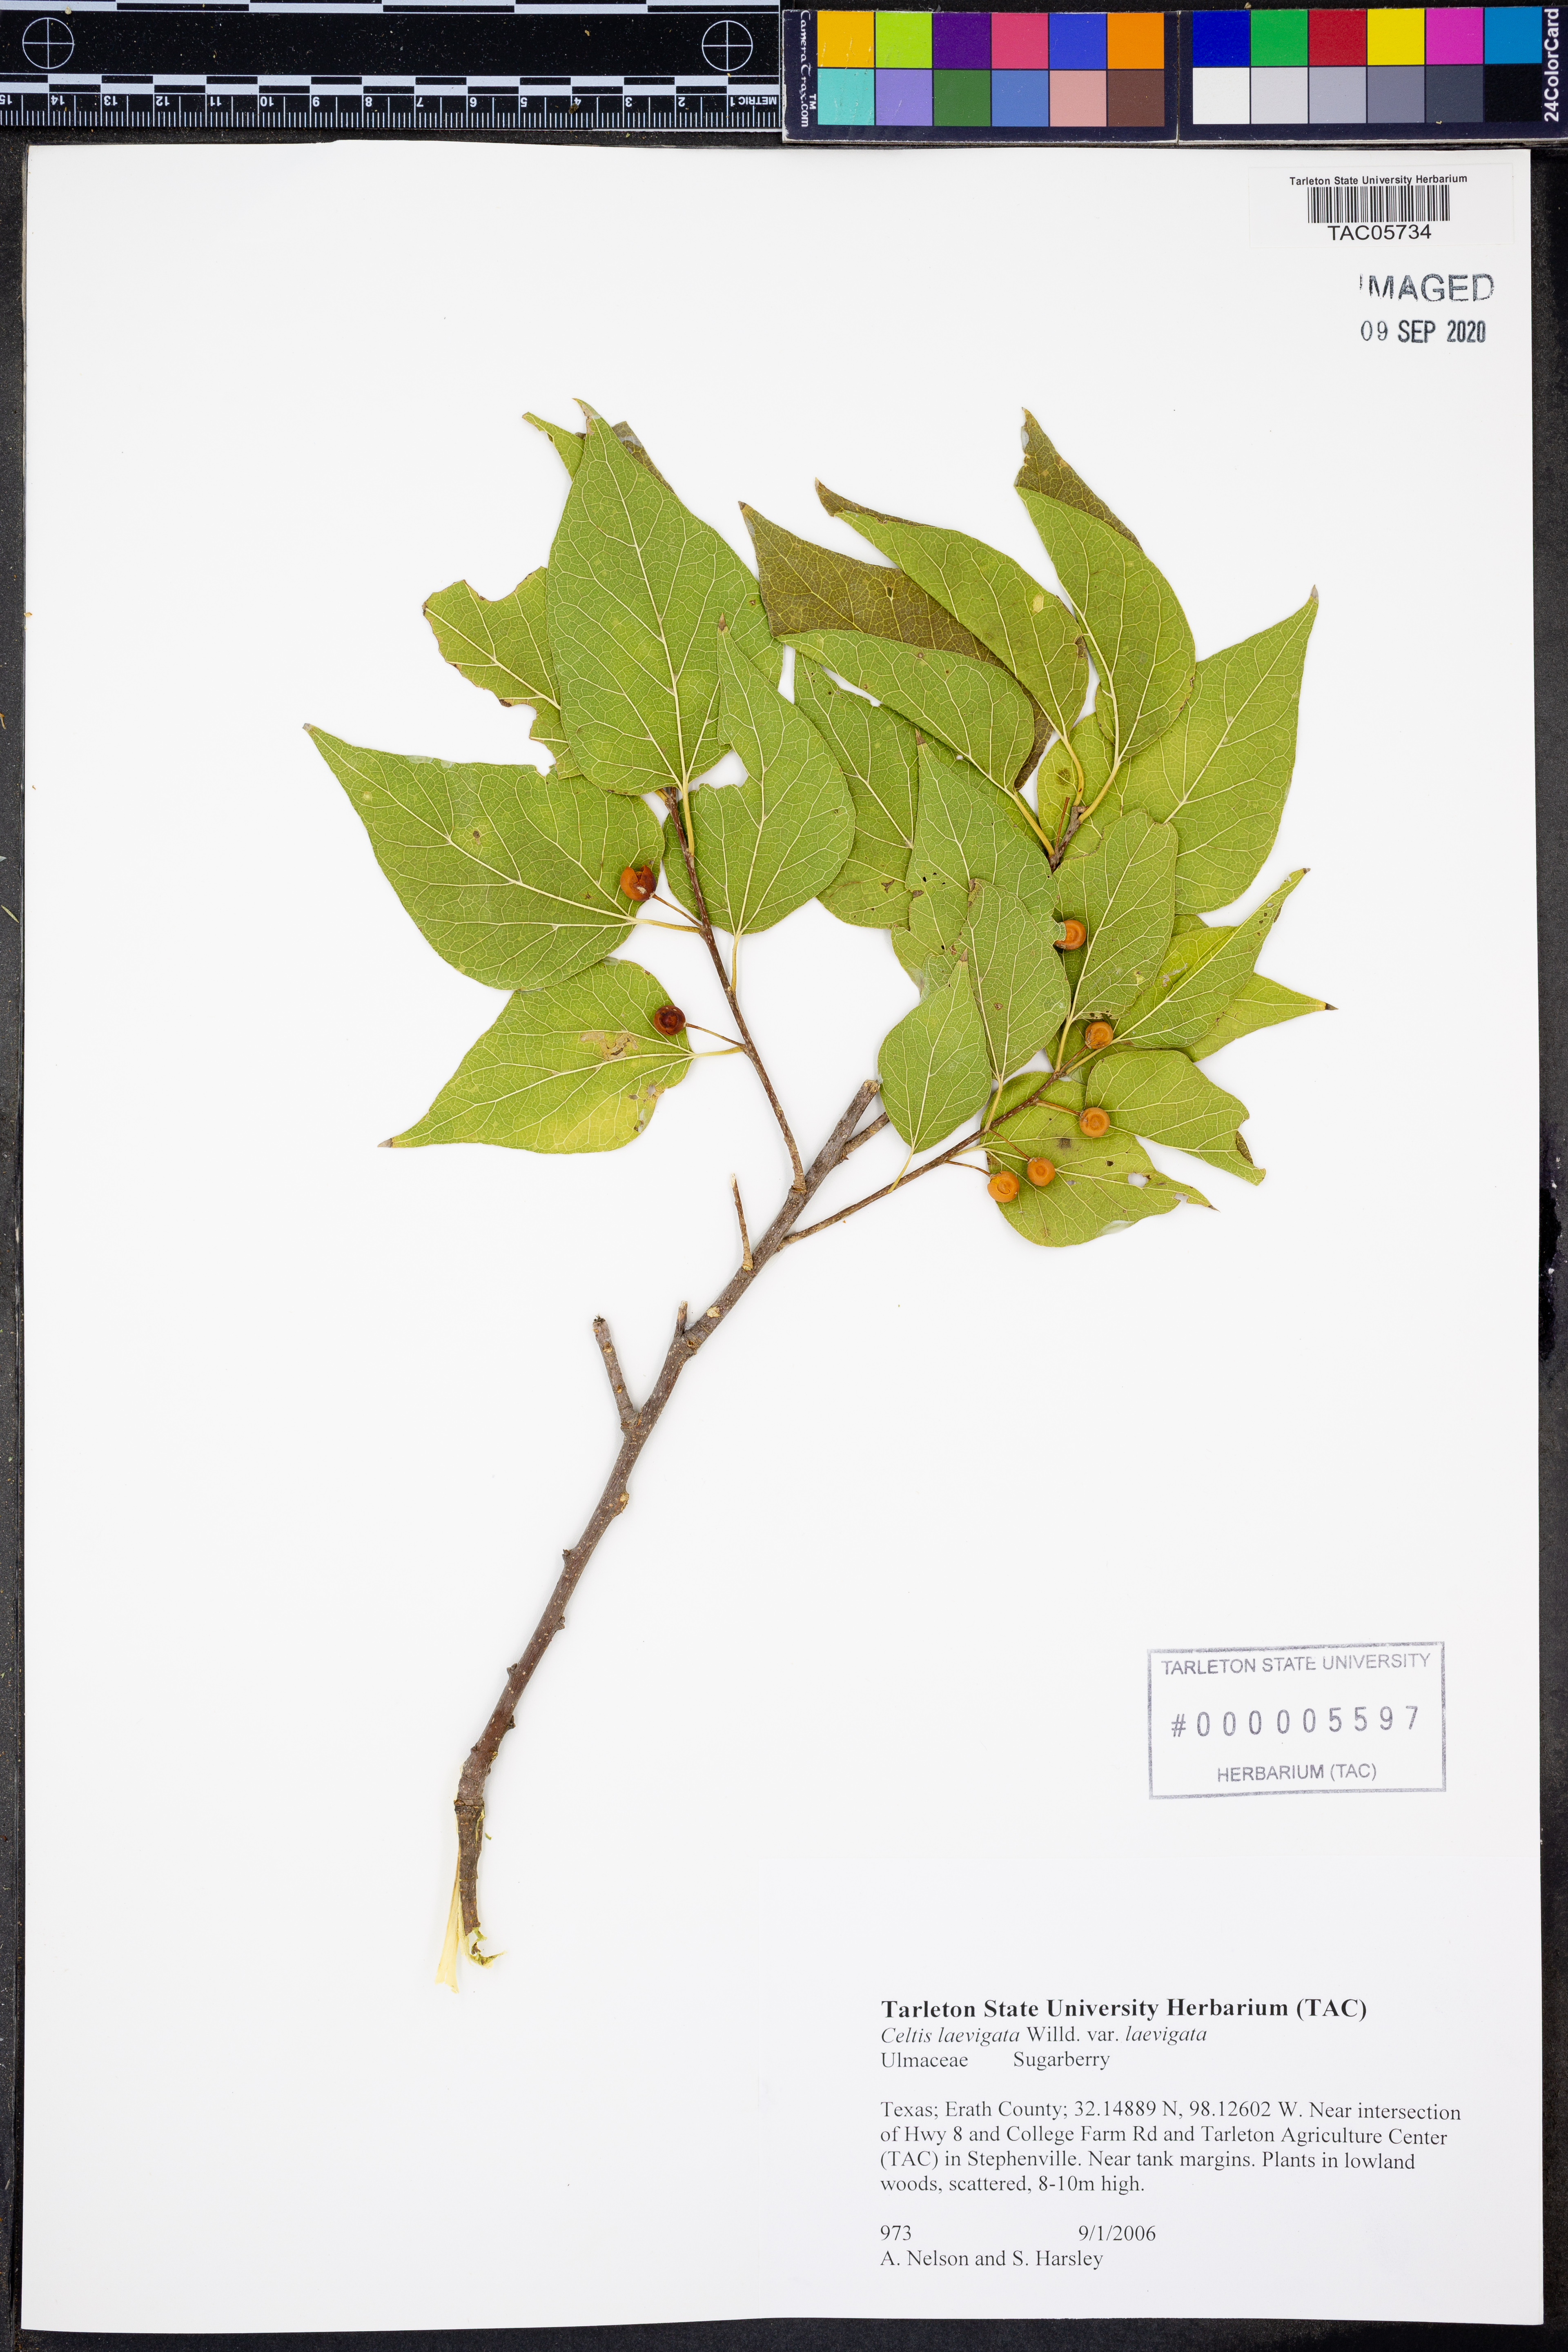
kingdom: Plantae
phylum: Tracheophyta
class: Magnoliopsida
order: Rosales
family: Cannabaceae
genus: Celtis
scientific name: Celtis laevigata
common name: Sugarberry
